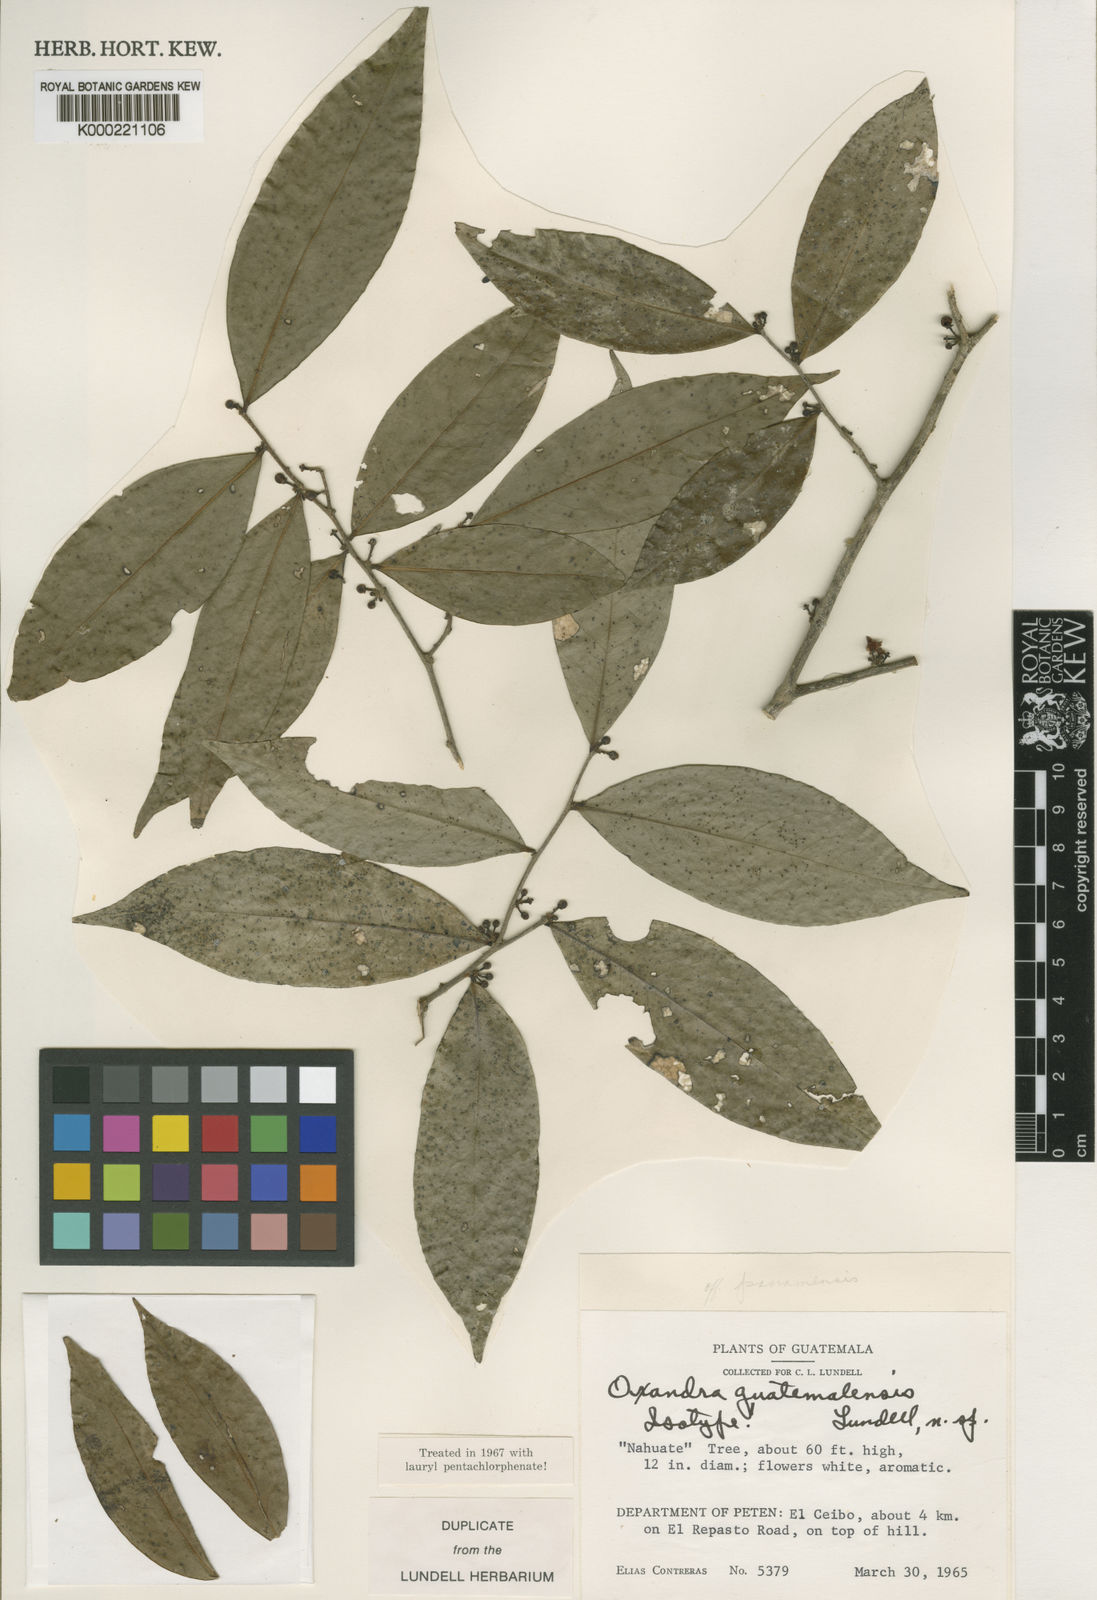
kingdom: Plantae
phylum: Tracheophyta
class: Magnoliopsida
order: Magnoliales
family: Annonaceae
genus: Oxandra
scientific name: Oxandra maya
